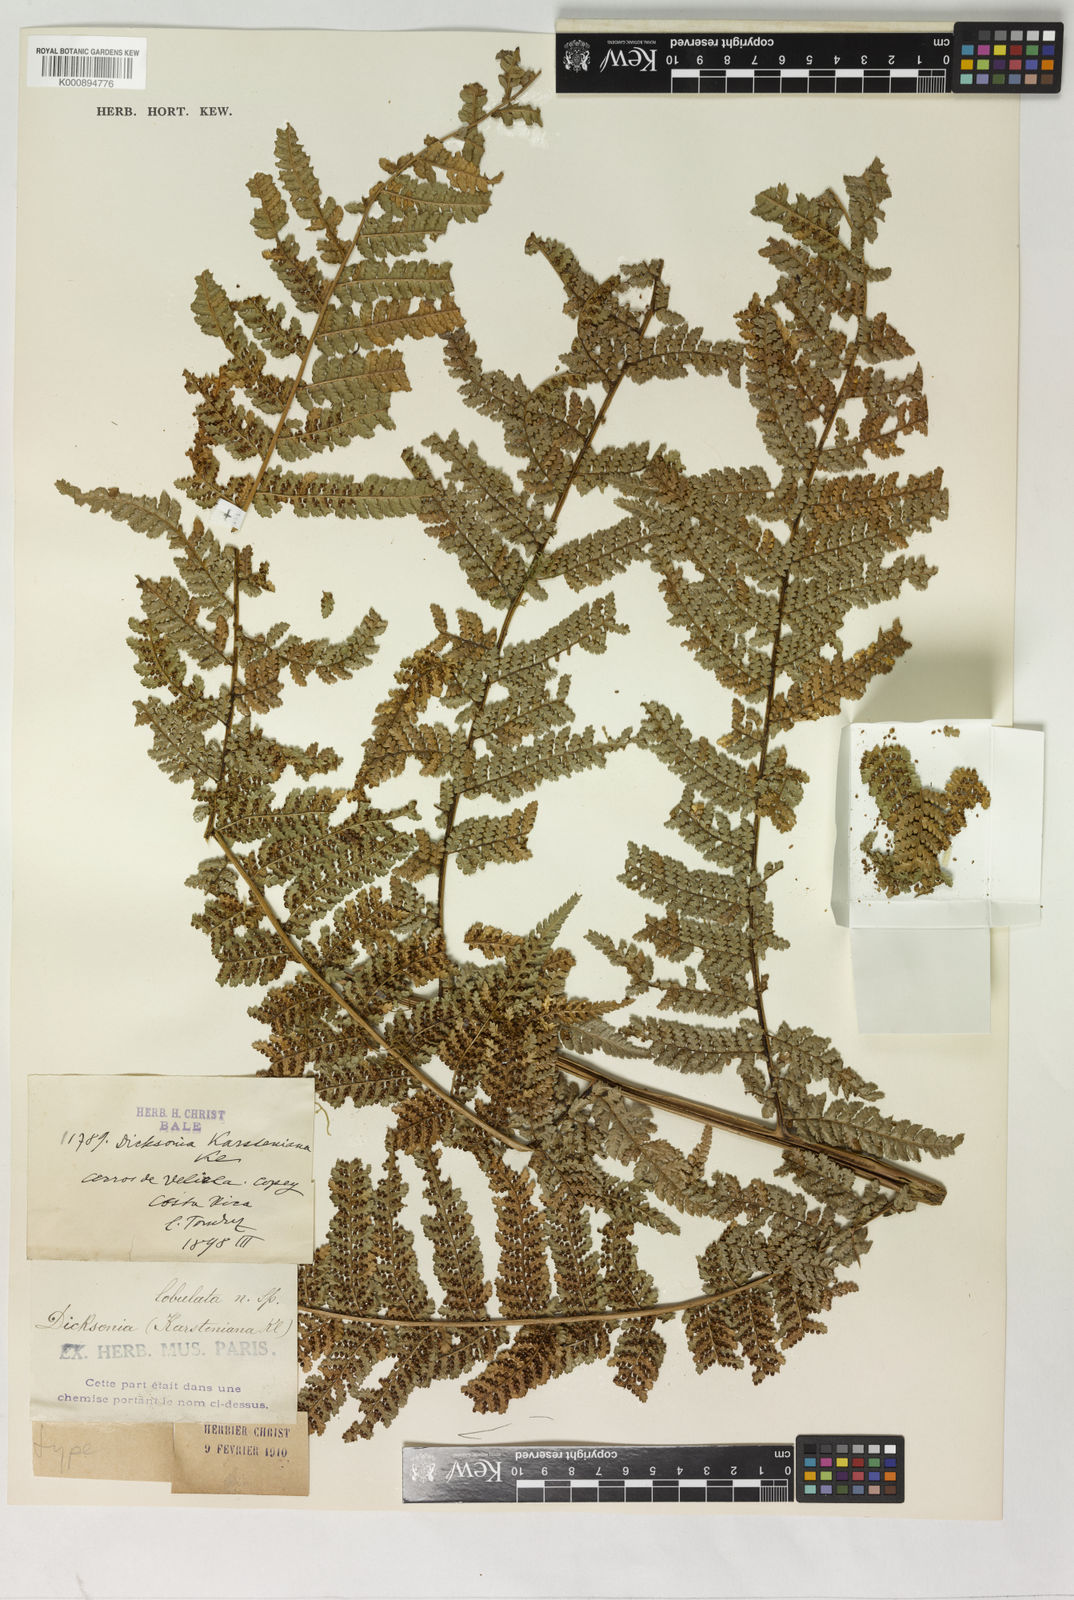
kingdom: Plantae
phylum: Tracheophyta
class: Polypodiopsida
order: Cyatheales
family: Dicksoniaceae
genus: Dicksonia
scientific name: Dicksonia sellowiana
